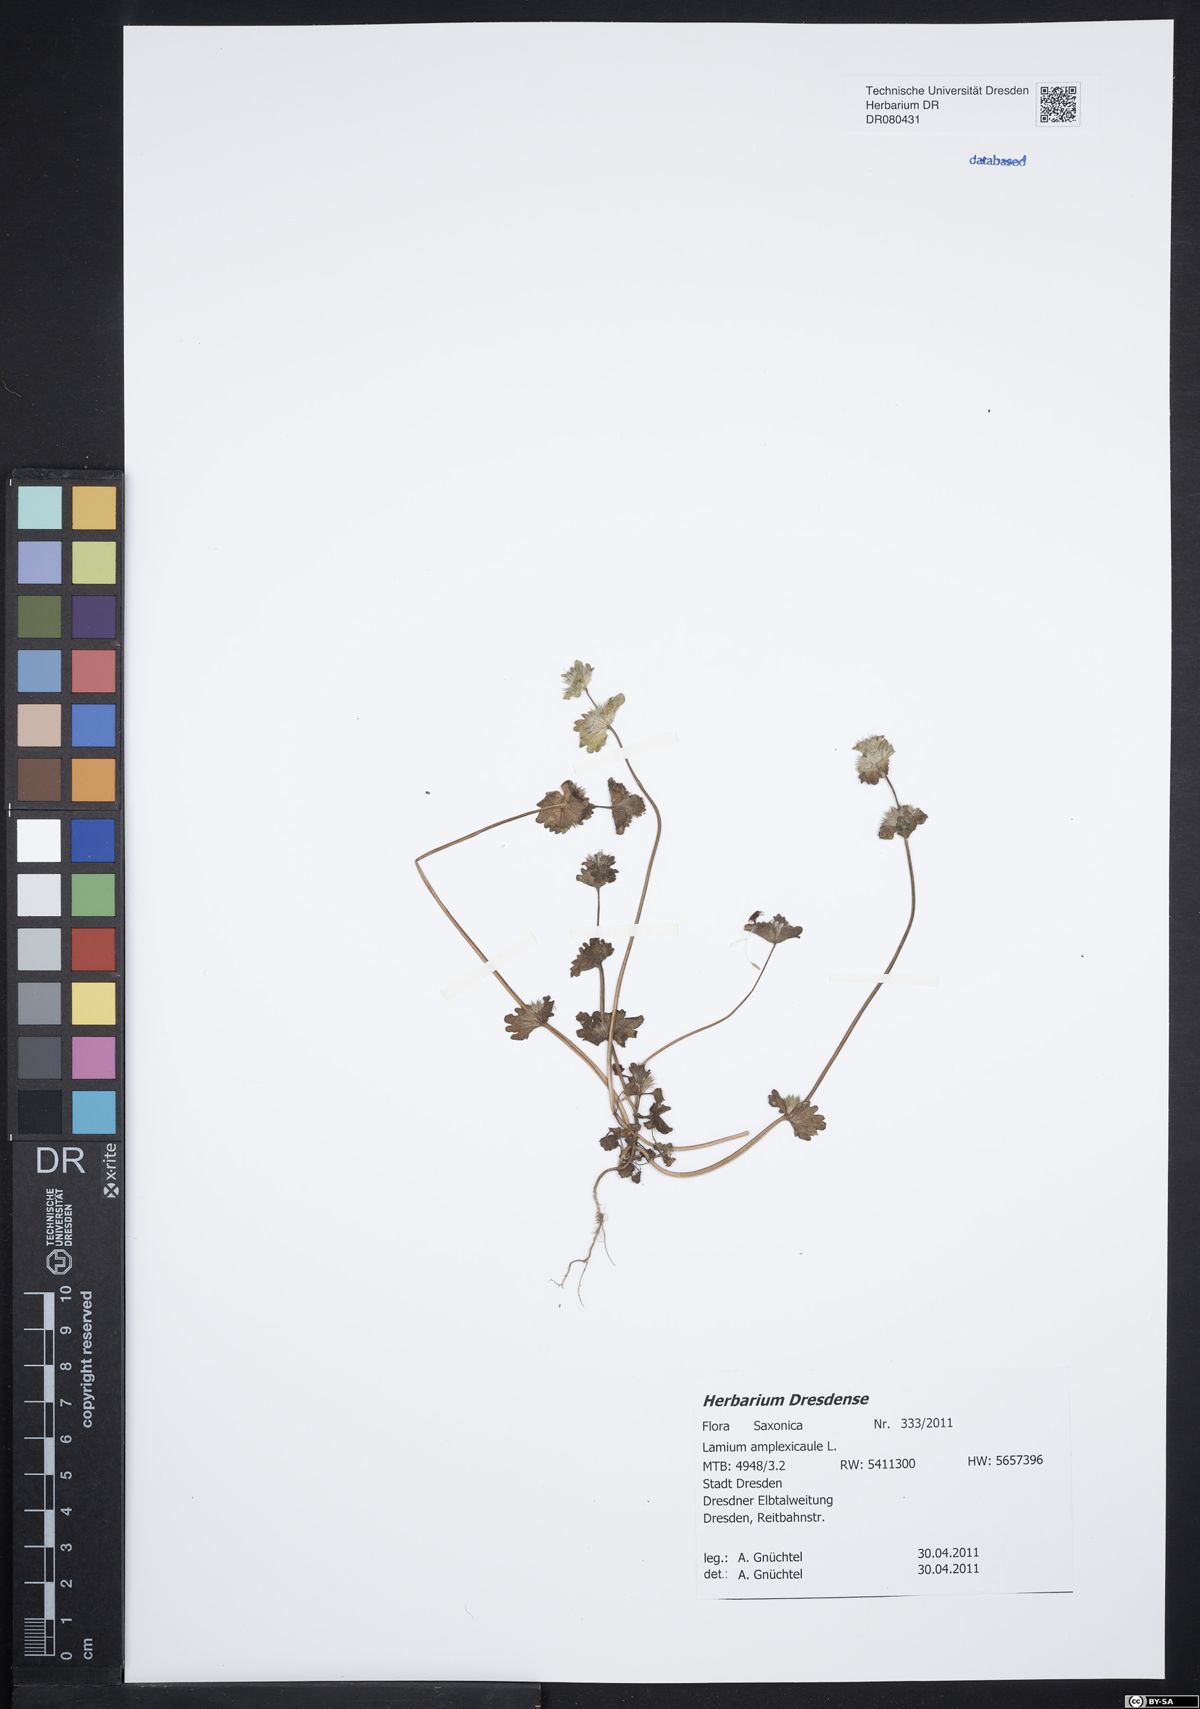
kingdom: Plantae
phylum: Tracheophyta
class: Magnoliopsida
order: Lamiales
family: Lamiaceae
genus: Lamium
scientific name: Lamium amplexicaule
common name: Henbit dead-nettle
